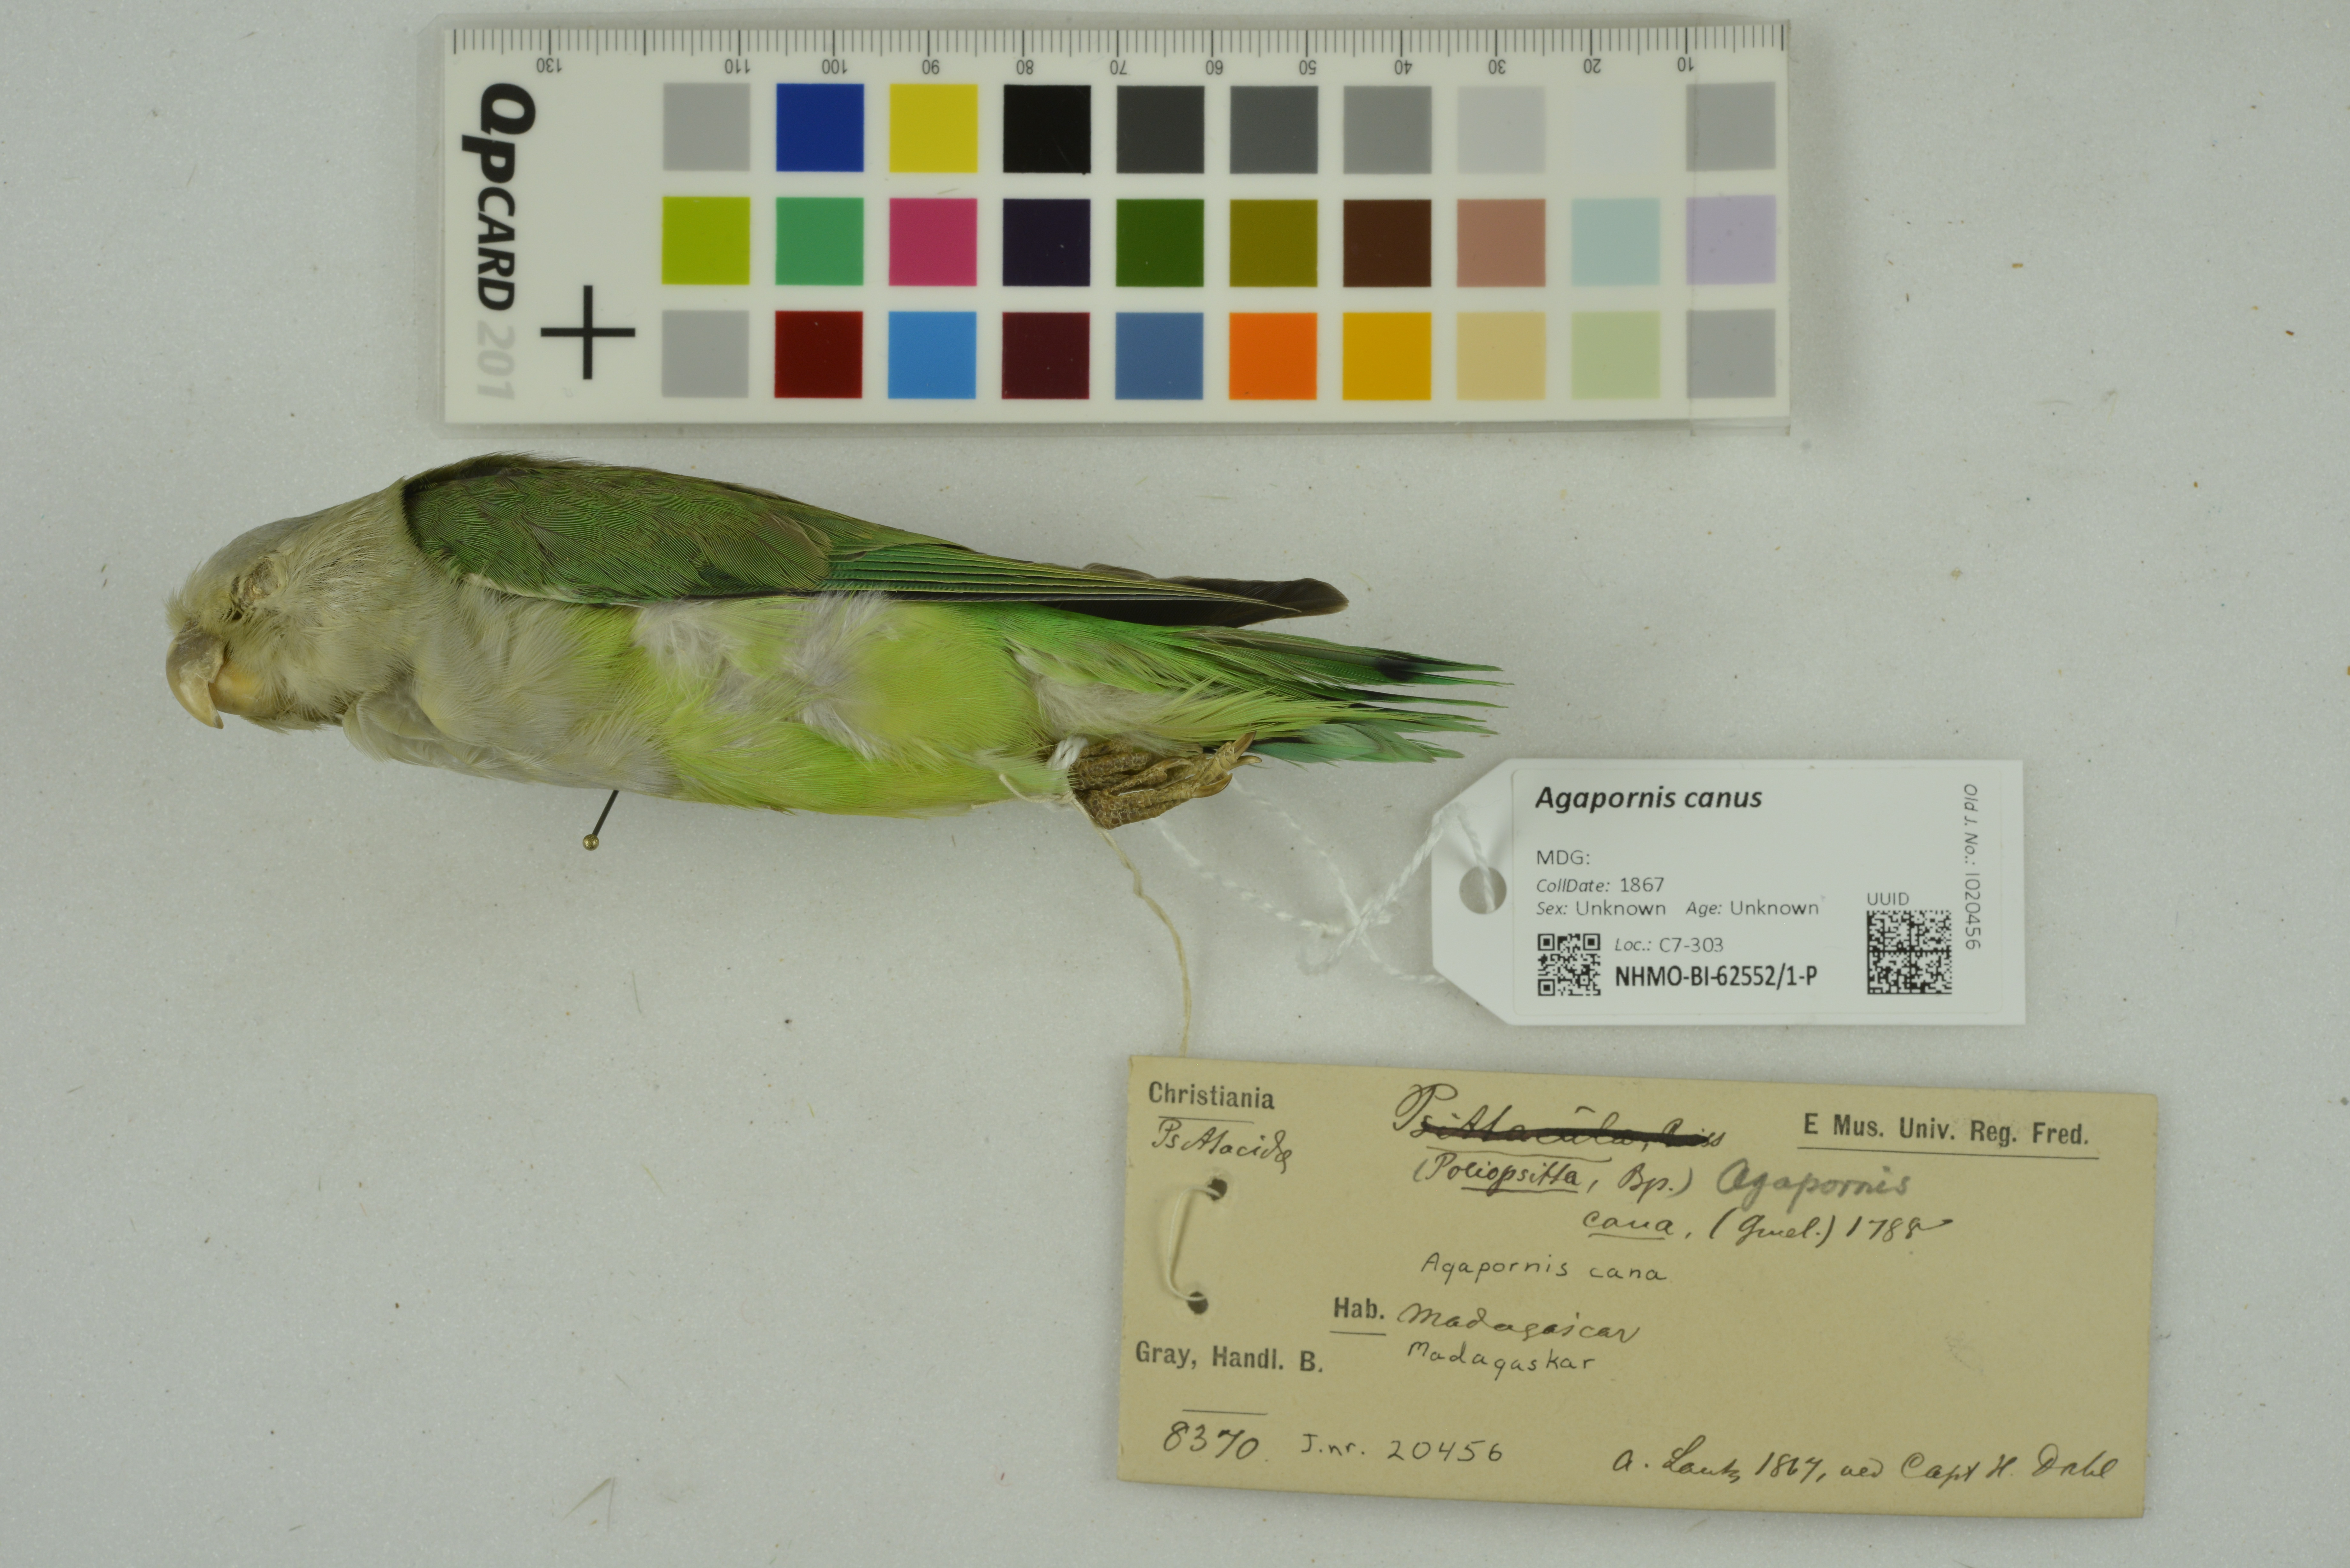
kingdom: Animalia
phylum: Chordata
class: Aves
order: Psittaciformes
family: Psittacidae
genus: Agapornis
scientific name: Agapornis canus
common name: Grey-headed lovebird
